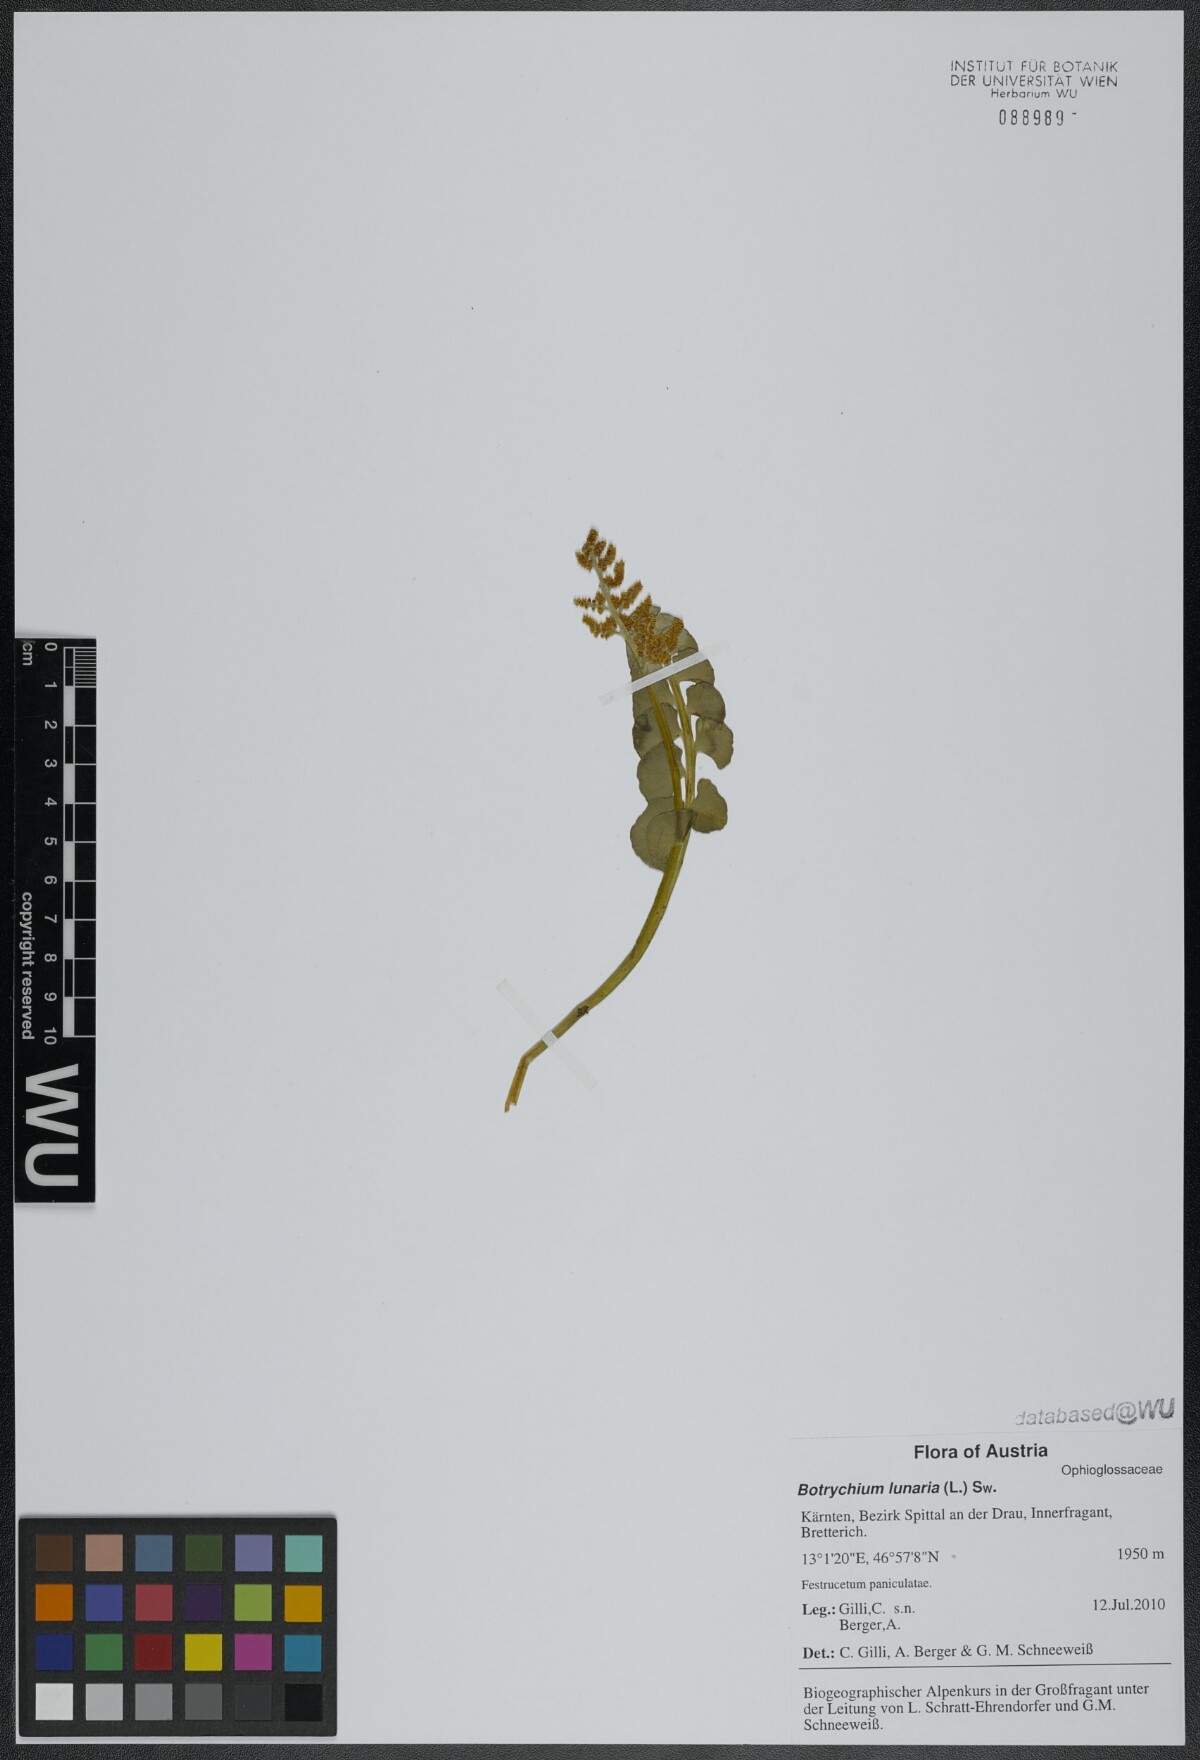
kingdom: Plantae
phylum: Tracheophyta
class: Polypodiopsida
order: Ophioglossales
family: Ophioglossaceae
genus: Botrychium
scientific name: Botrychium lunaria
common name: Moonwort
